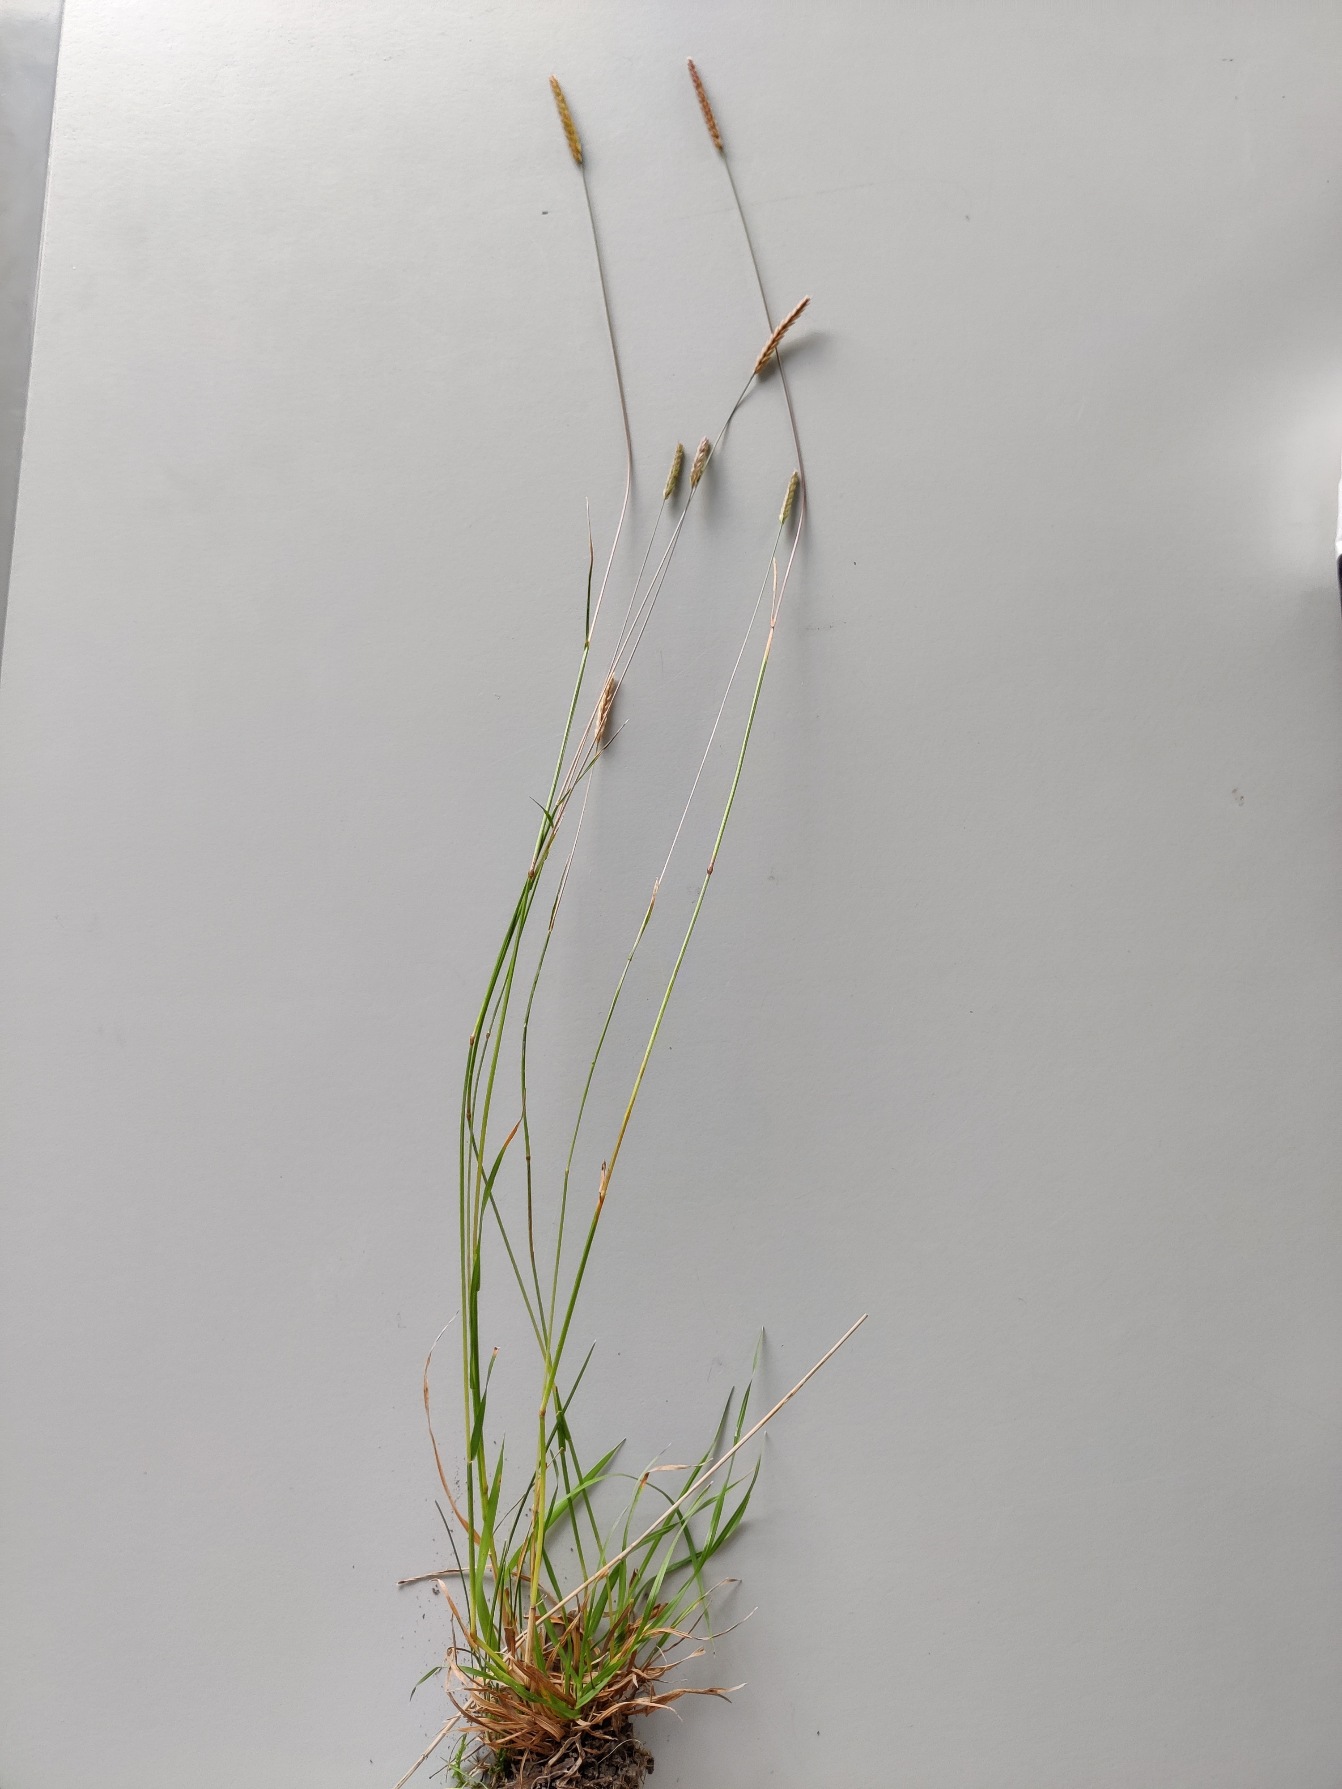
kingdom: Plantae
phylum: Tracheophyta
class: Liliopsida
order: Poales
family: Poaceae
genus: Cynosurus
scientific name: Cynosurus cristatus
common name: Kamgræs
